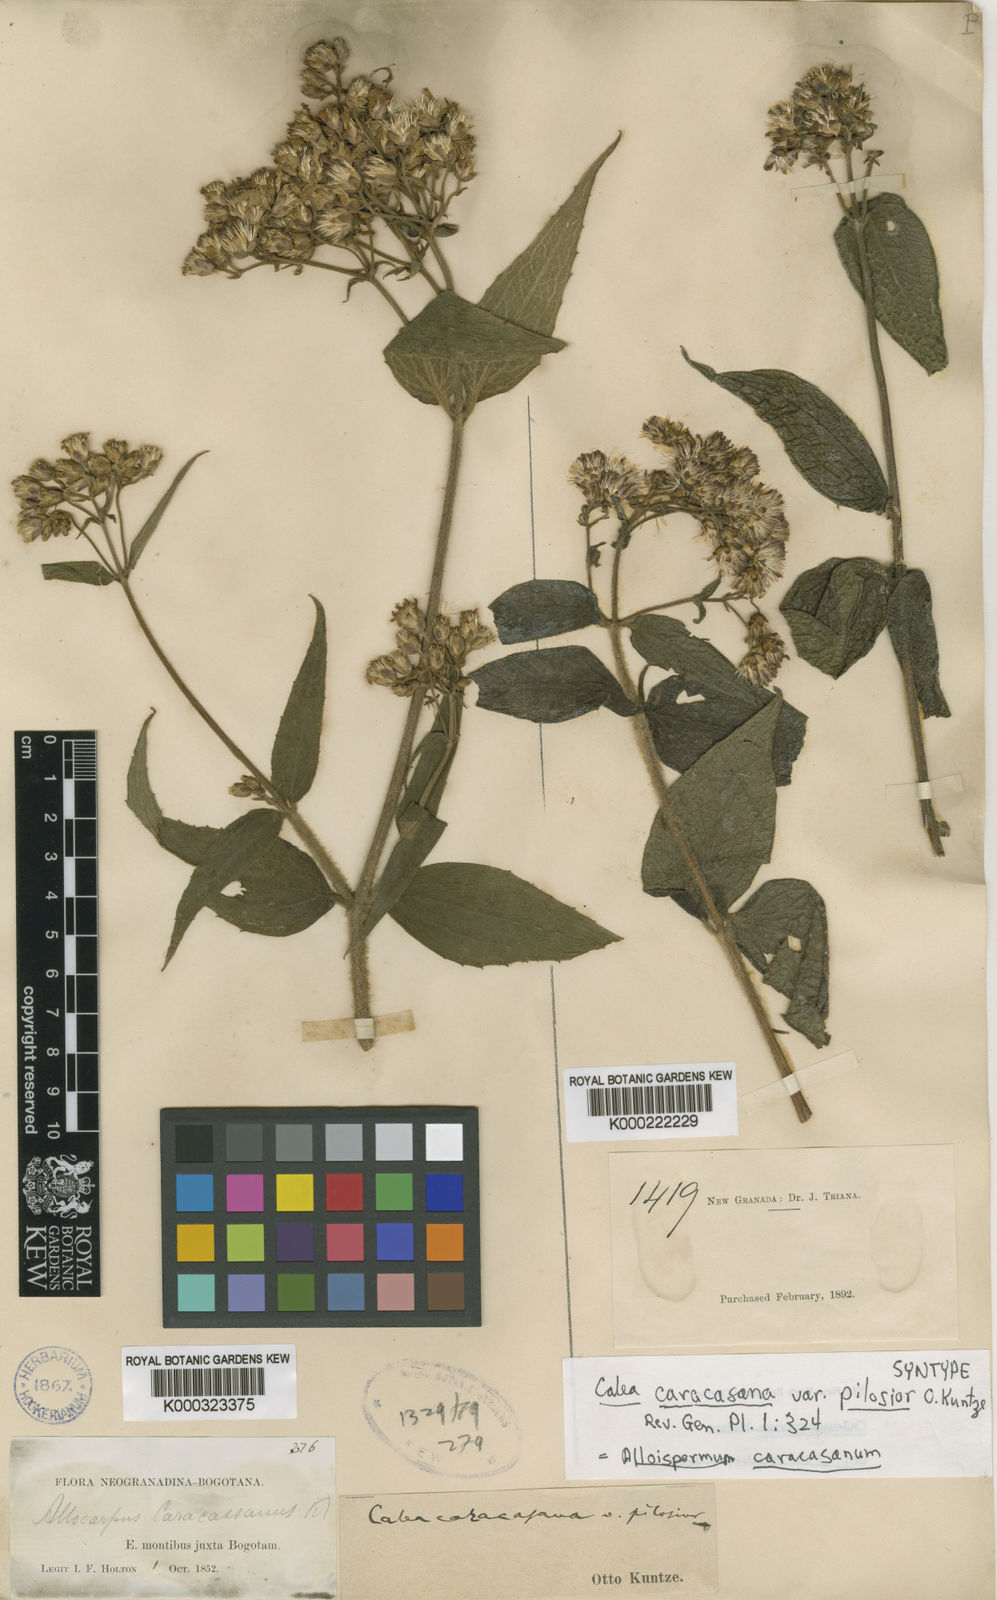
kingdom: Plantae
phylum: Tracheophyta
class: Magnoliopsida
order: Asterales
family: Asteraceae
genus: Alloispermum
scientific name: Alloispermum caracasanum
